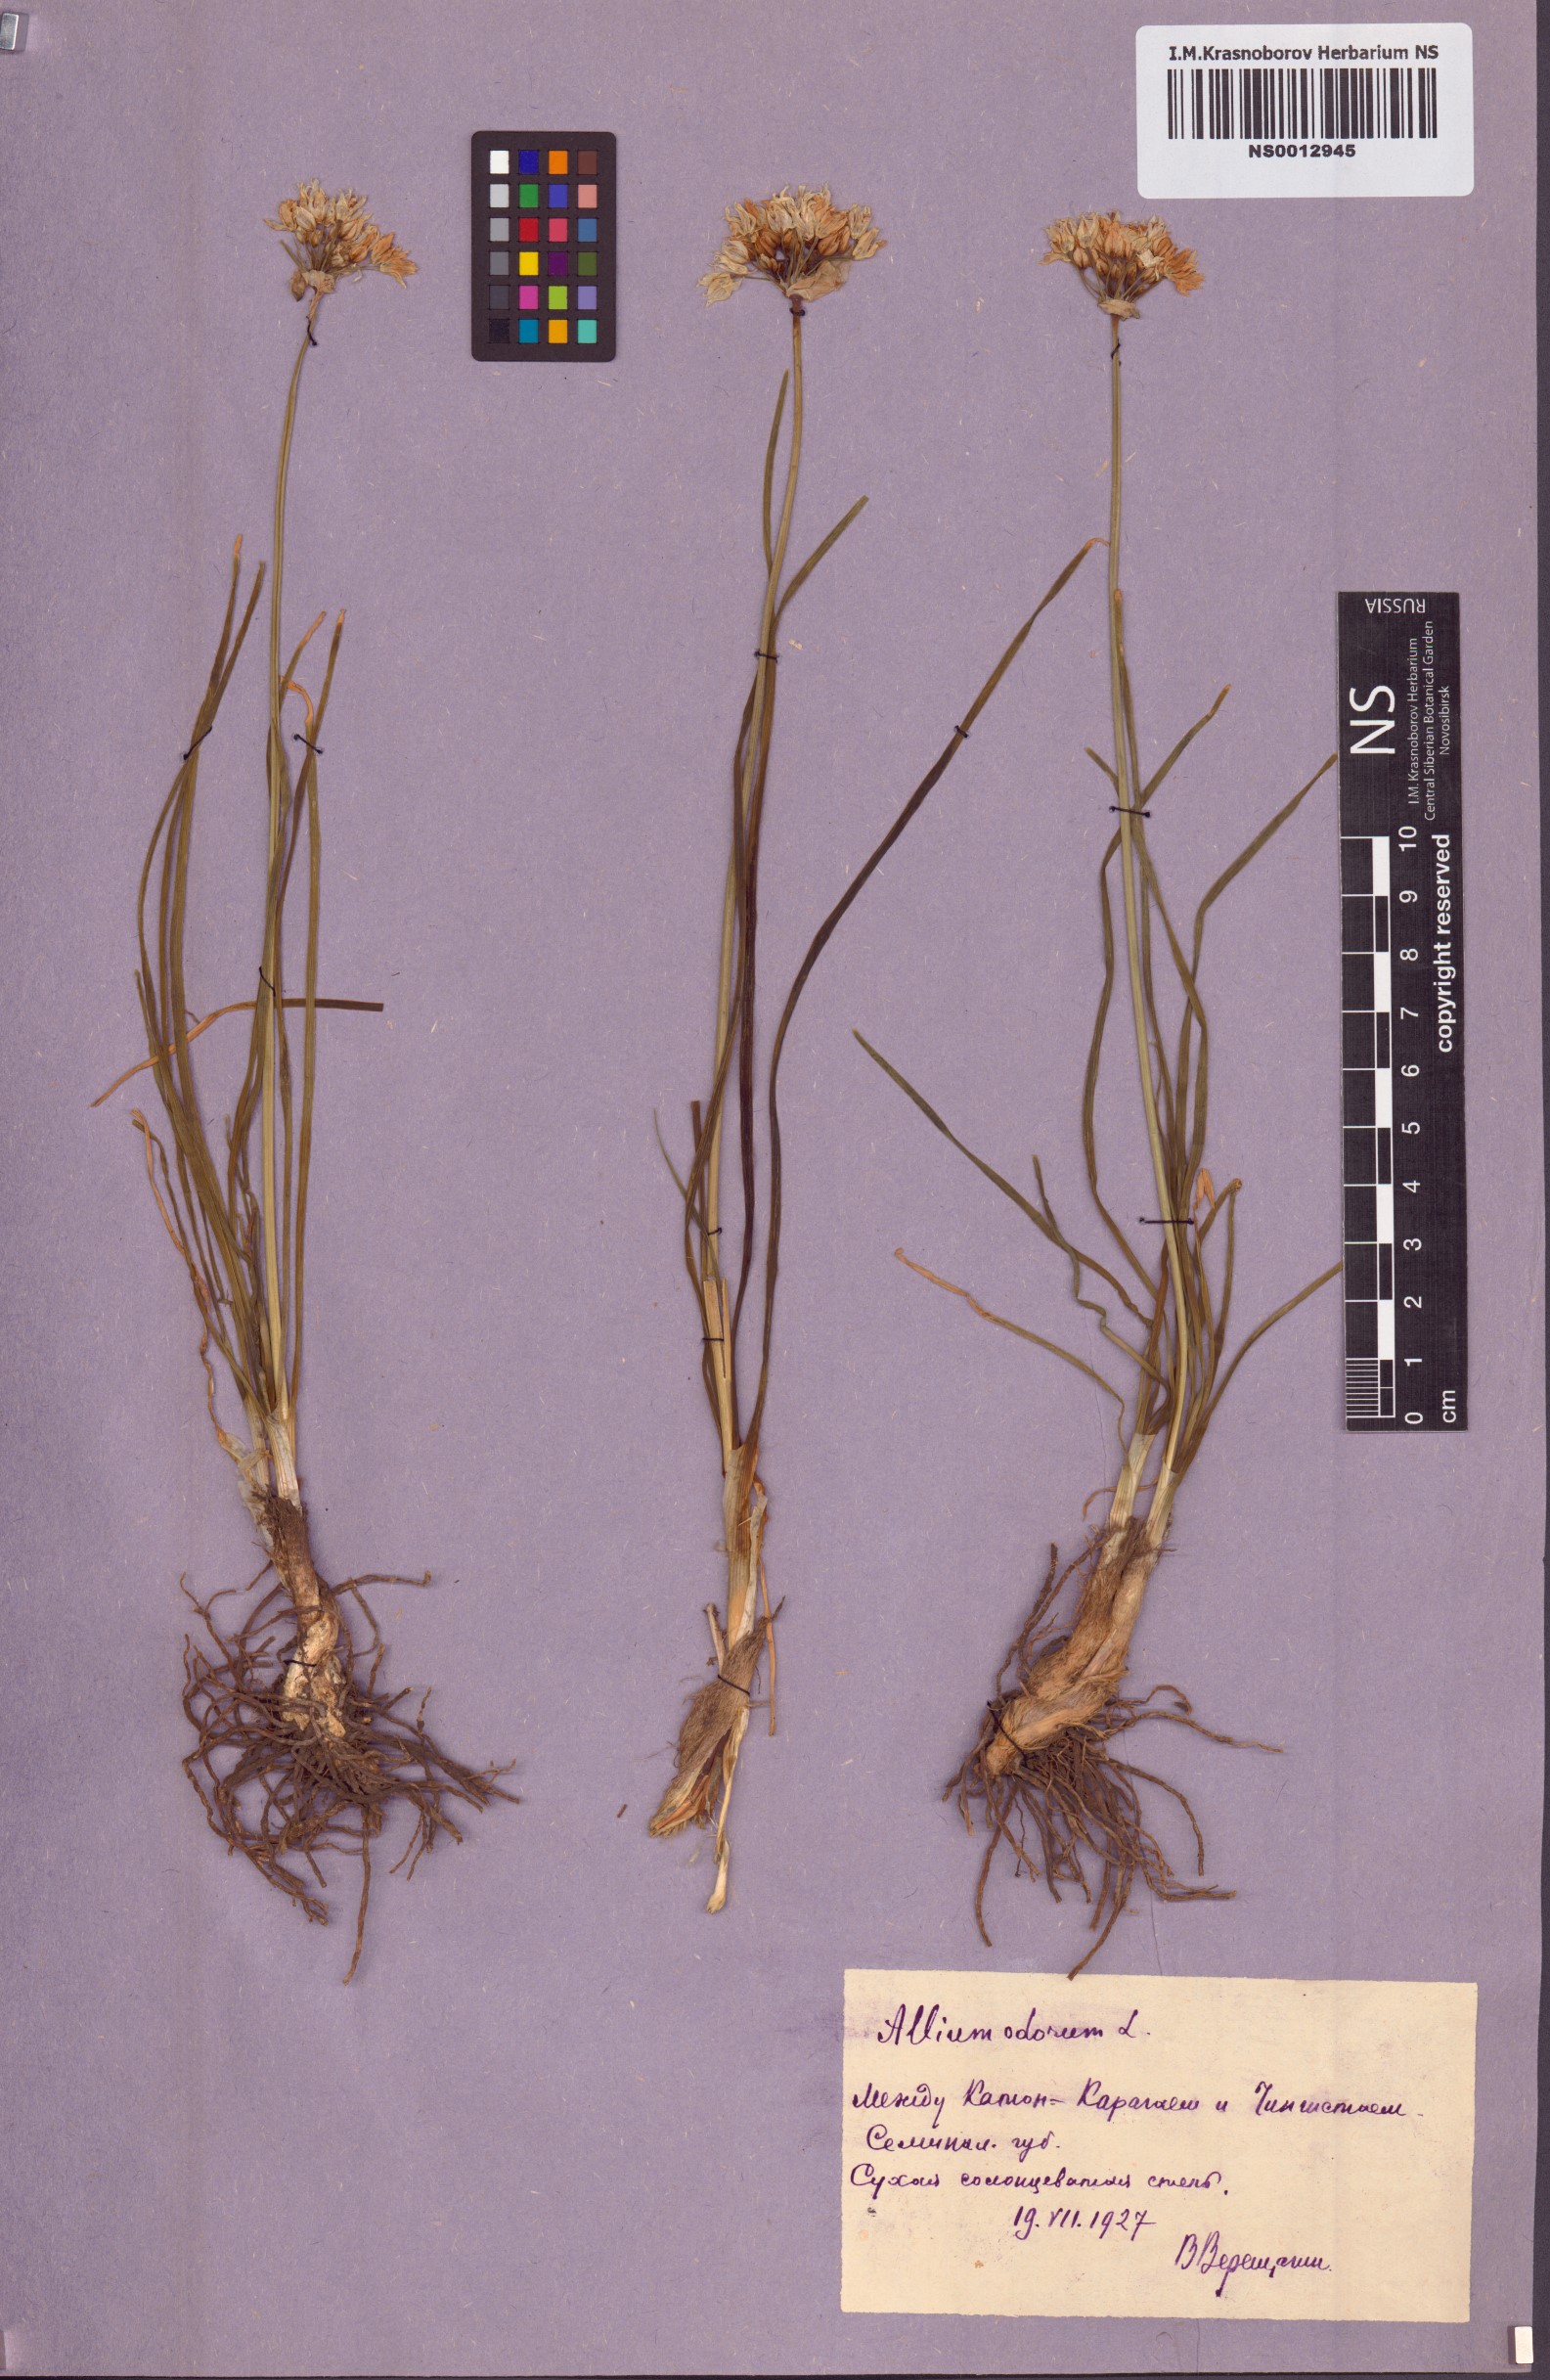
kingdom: Plantae
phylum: Tracheophyta
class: Liliopsida
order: Asparagales
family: Amaryllidaceae
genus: Allium
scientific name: Allium ramosum
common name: Fragrant garlic
